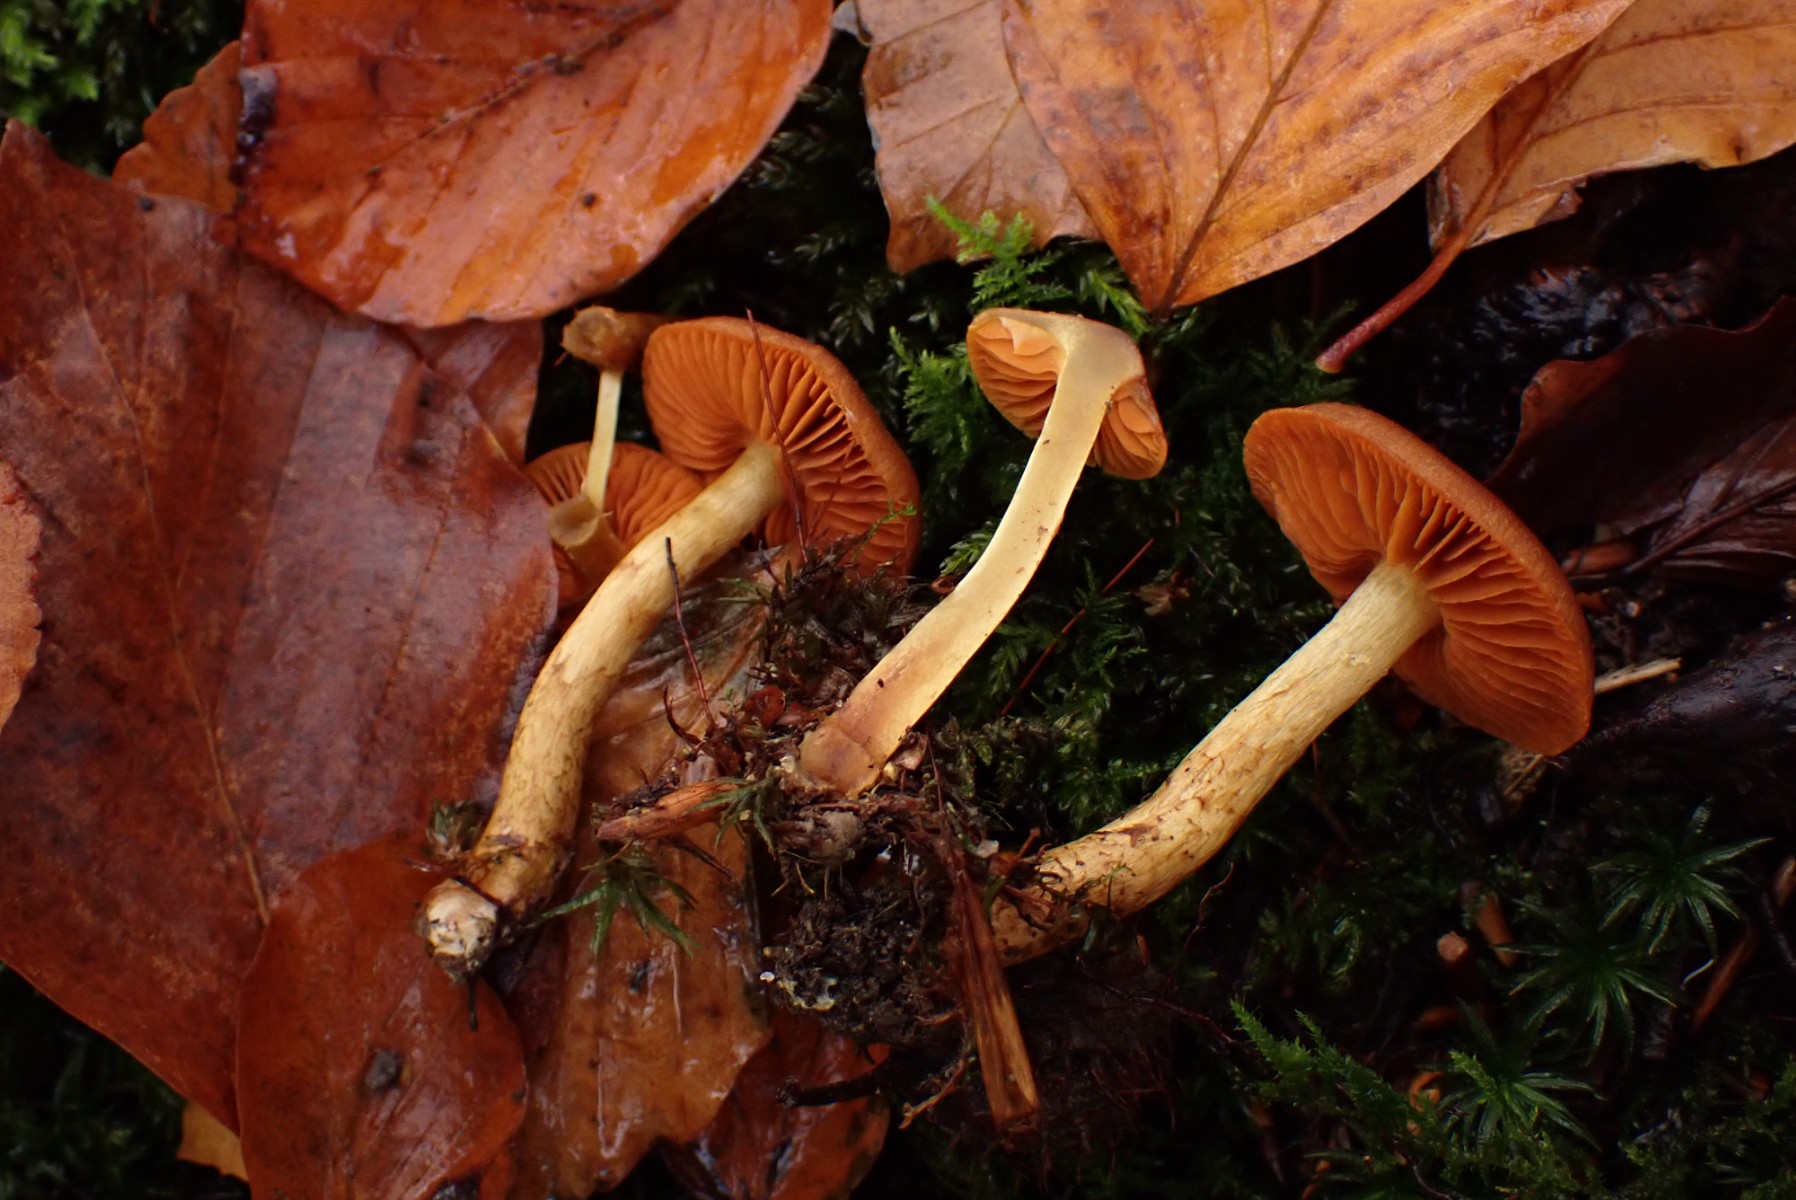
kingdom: Fungi
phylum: Basidiomycota
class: Agaricomycetes
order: Agaricales
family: Cortinariaceae
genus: Cortinarius
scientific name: Cortinarius cinnamomeus
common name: kanel-slørhat
